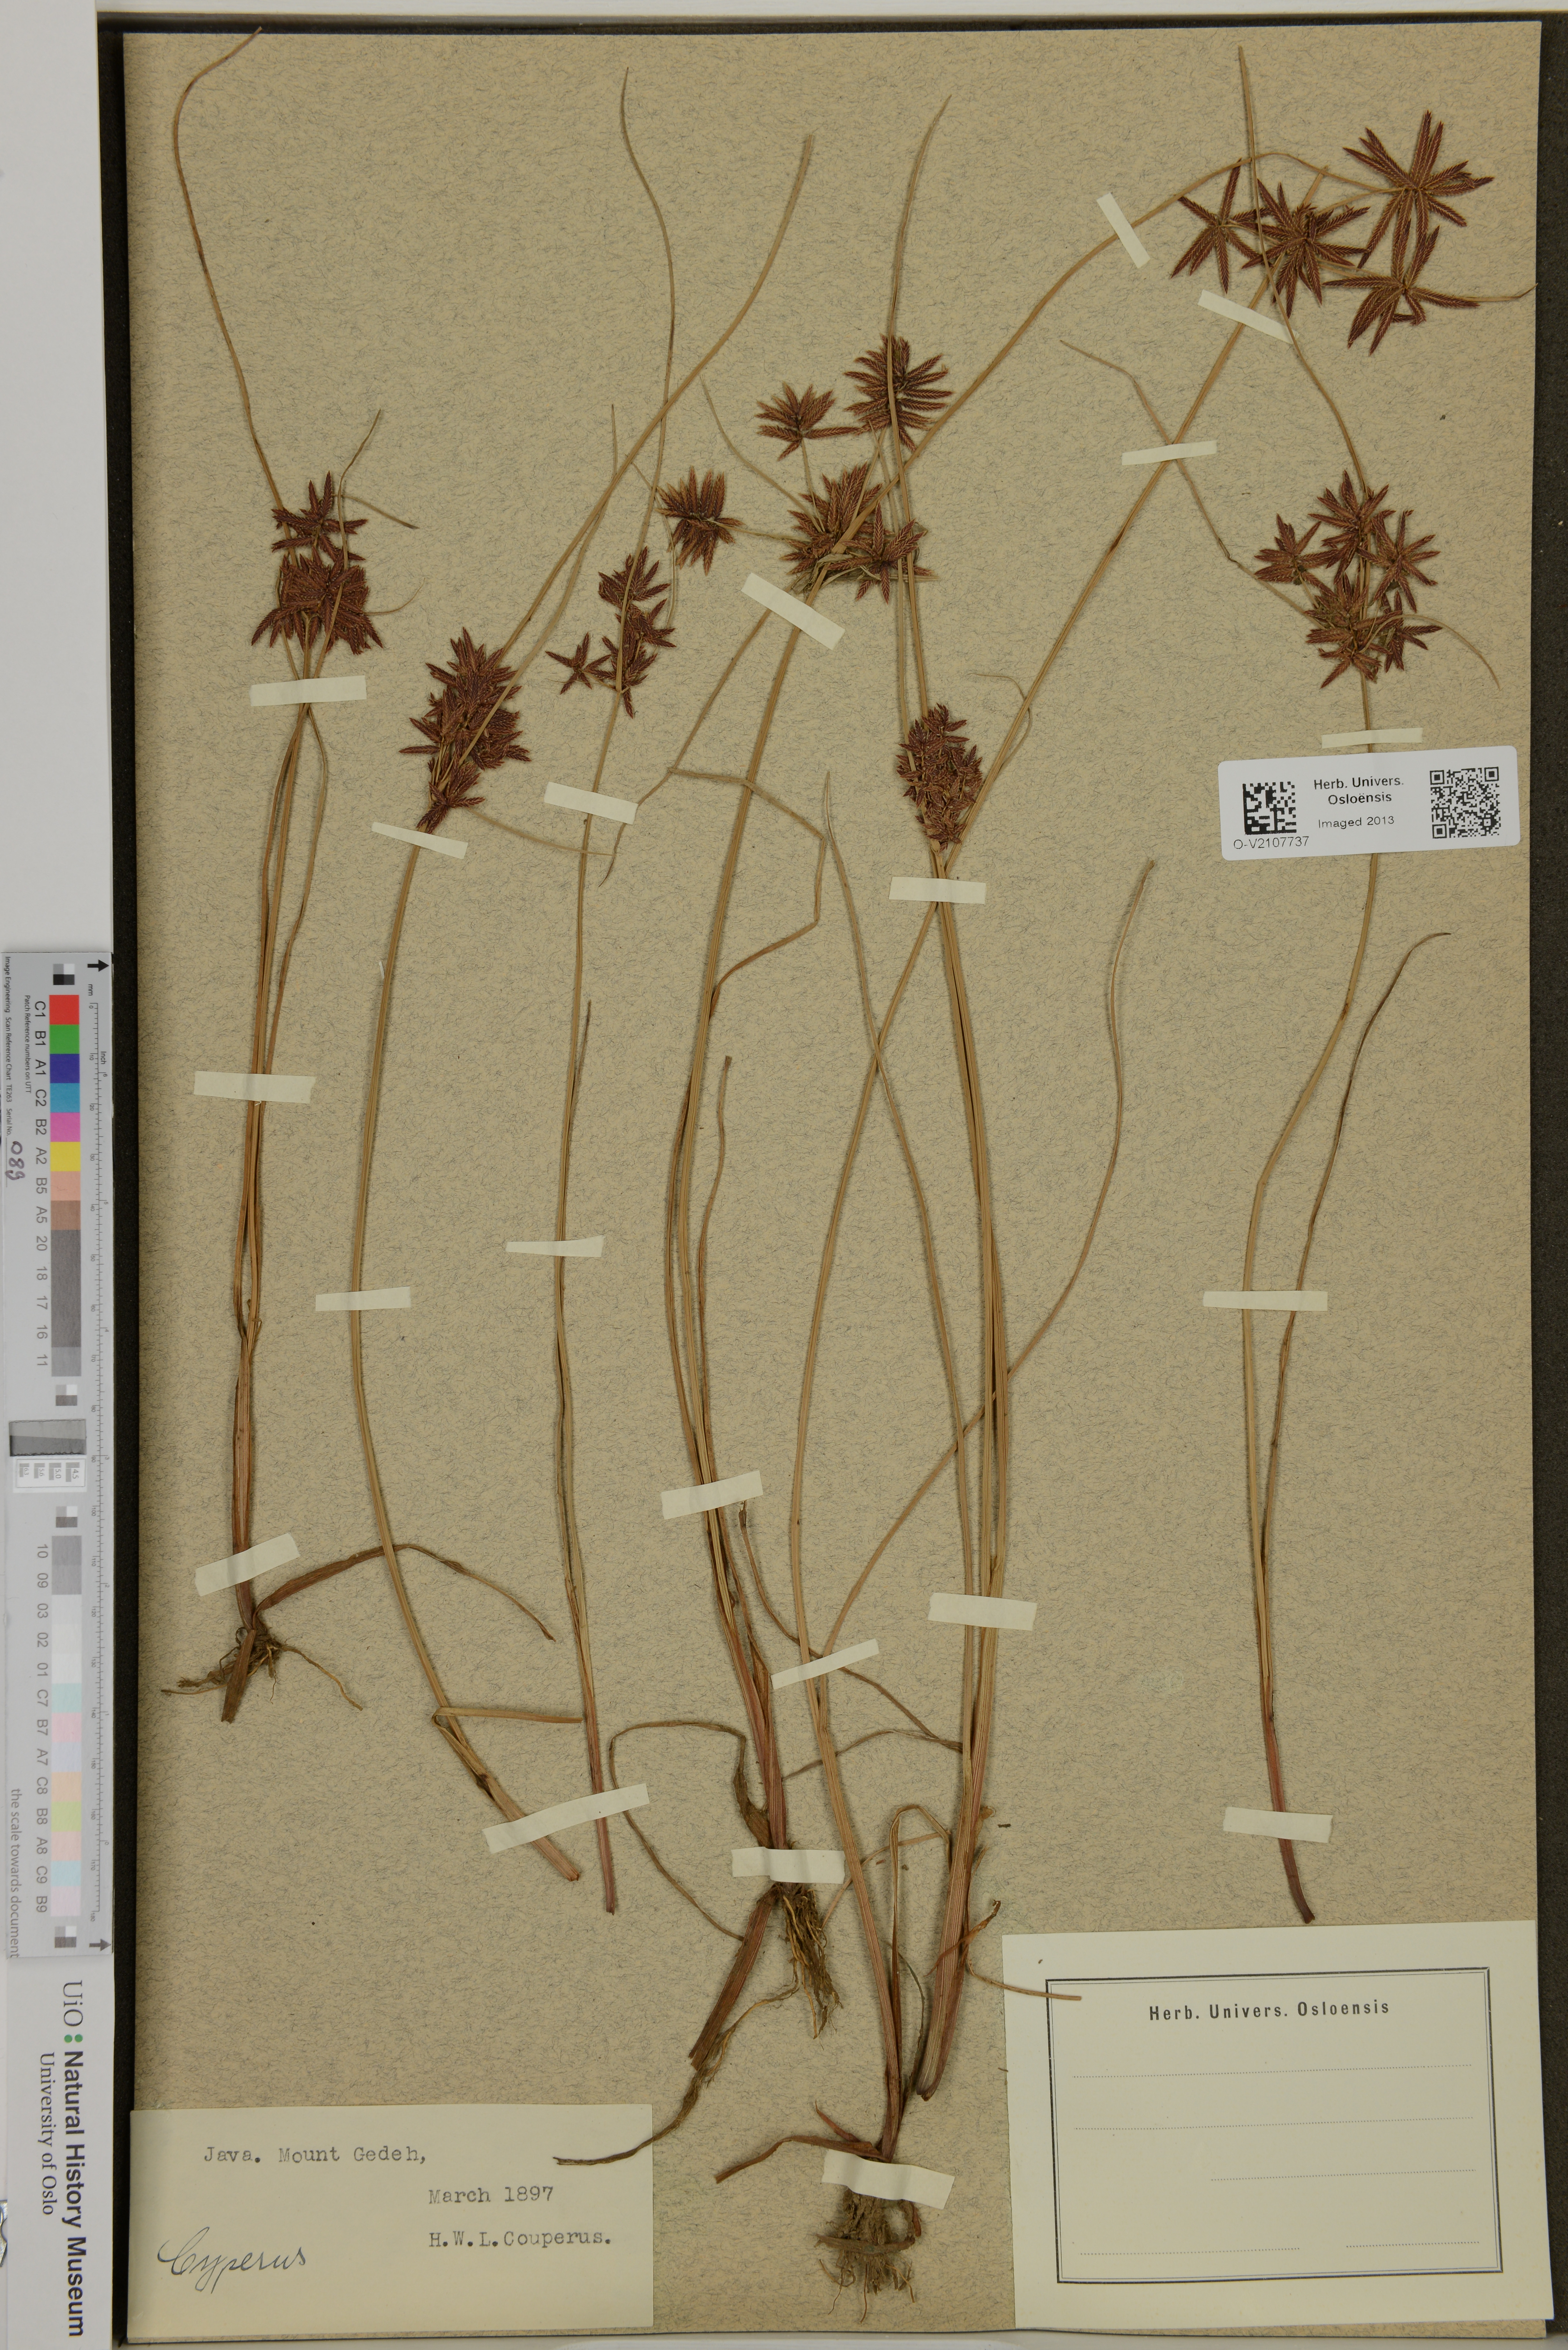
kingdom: Plantae
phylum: Tracheophyta
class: Liliopsida
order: Poales
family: Cyperaceae
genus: Cyperus
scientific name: Cyperus
